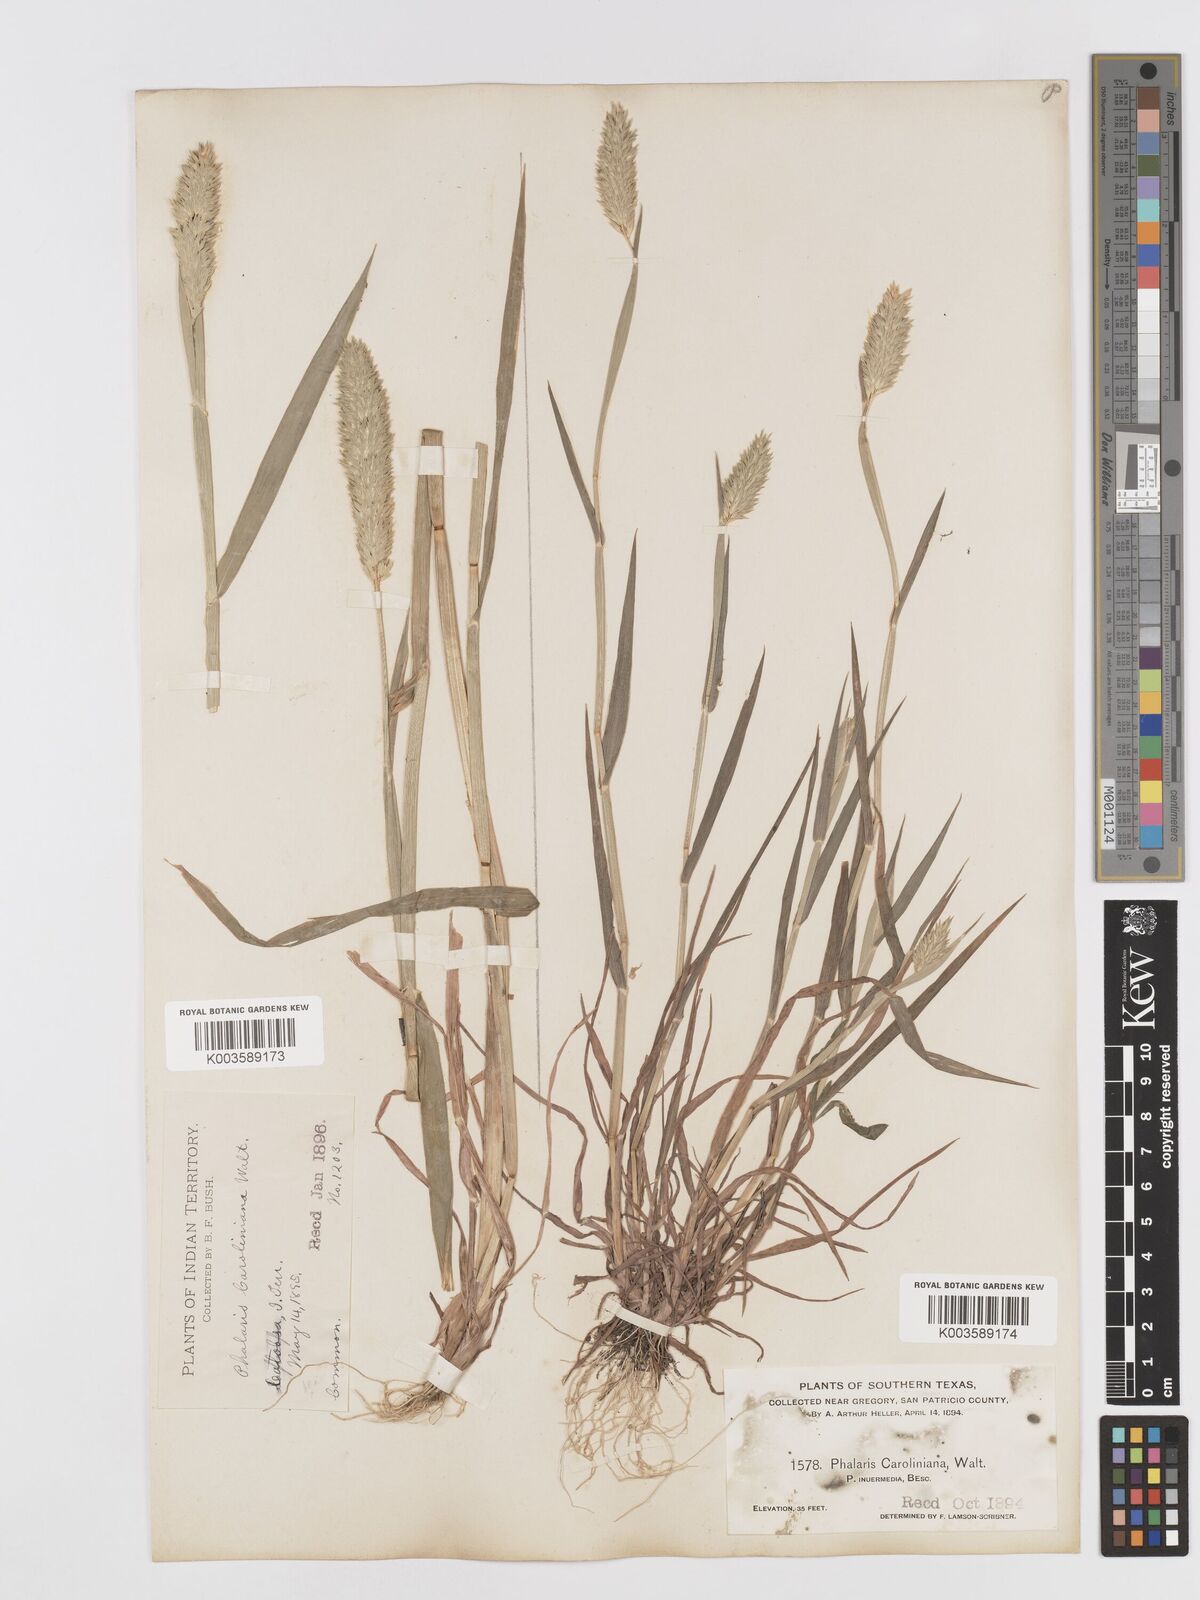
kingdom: Plantae
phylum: Tracheophyta
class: Liliopsida
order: Poales
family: Poaceae
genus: Phalaris
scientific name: Phalaris caroliniana
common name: May grass
